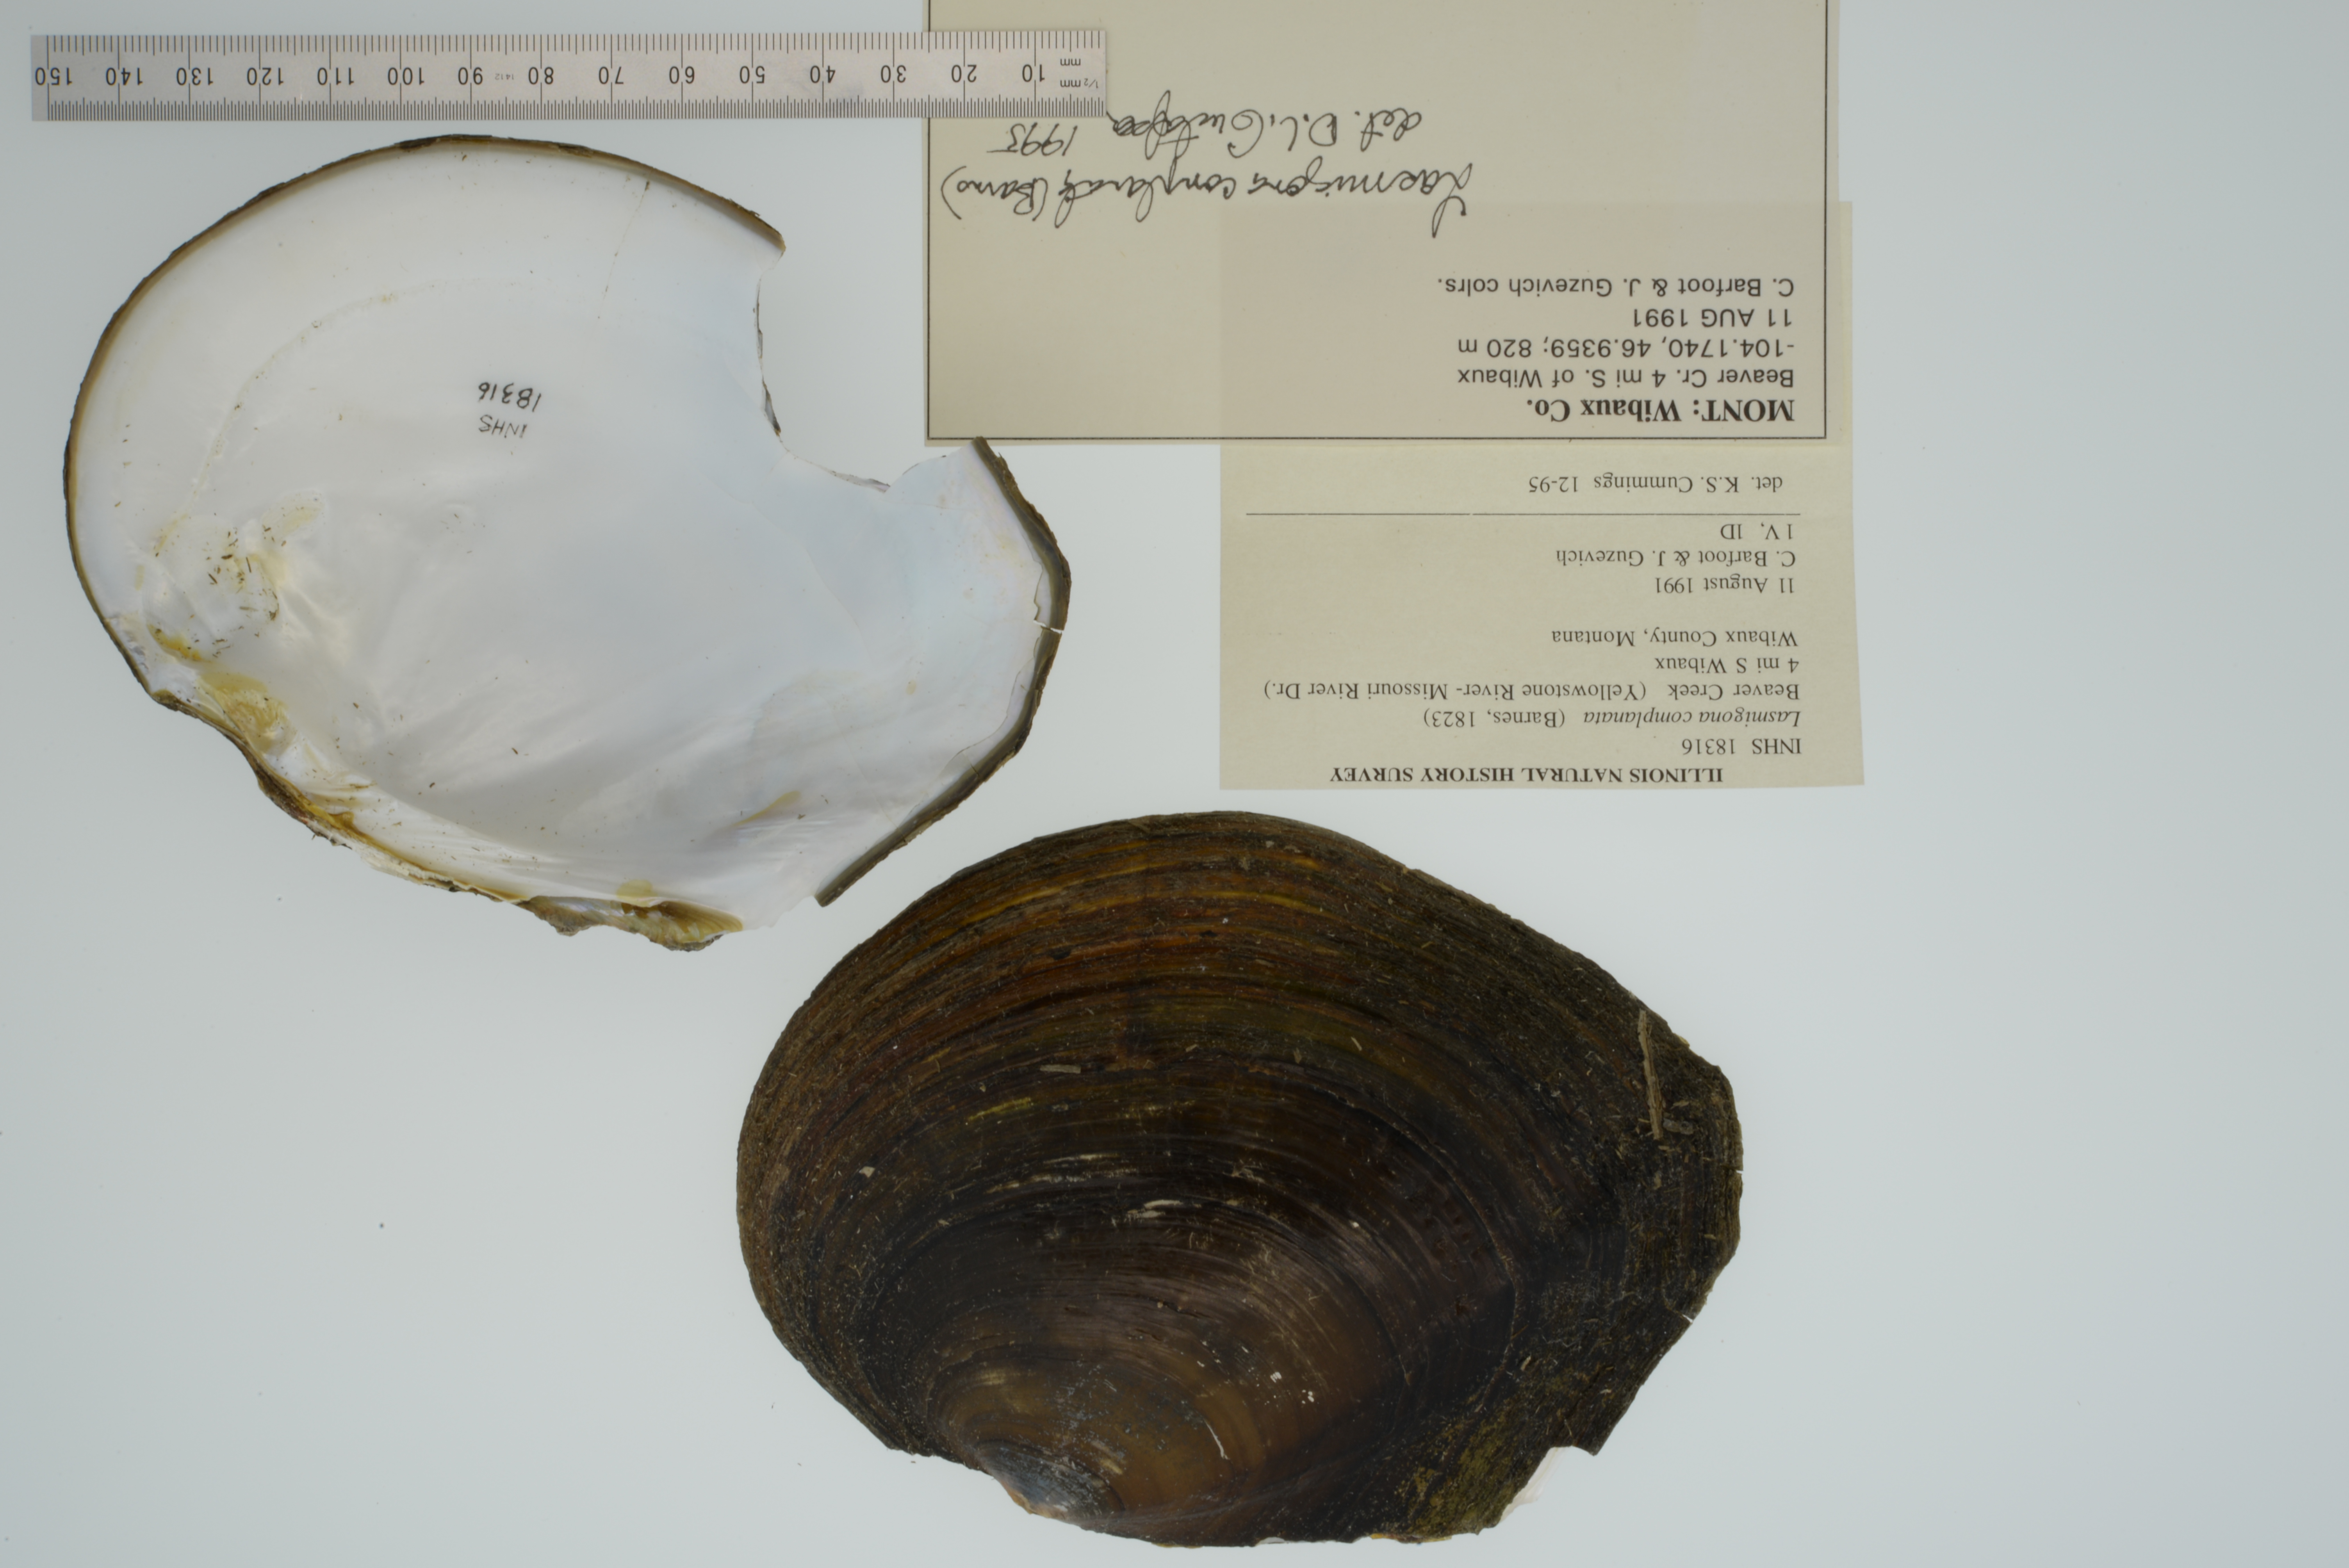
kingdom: Animalia
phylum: Mollusca
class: Bivalvia
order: Unionida
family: Unionidae
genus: Lasmigona
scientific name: Lasmigona complanata
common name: White heelsplitter
